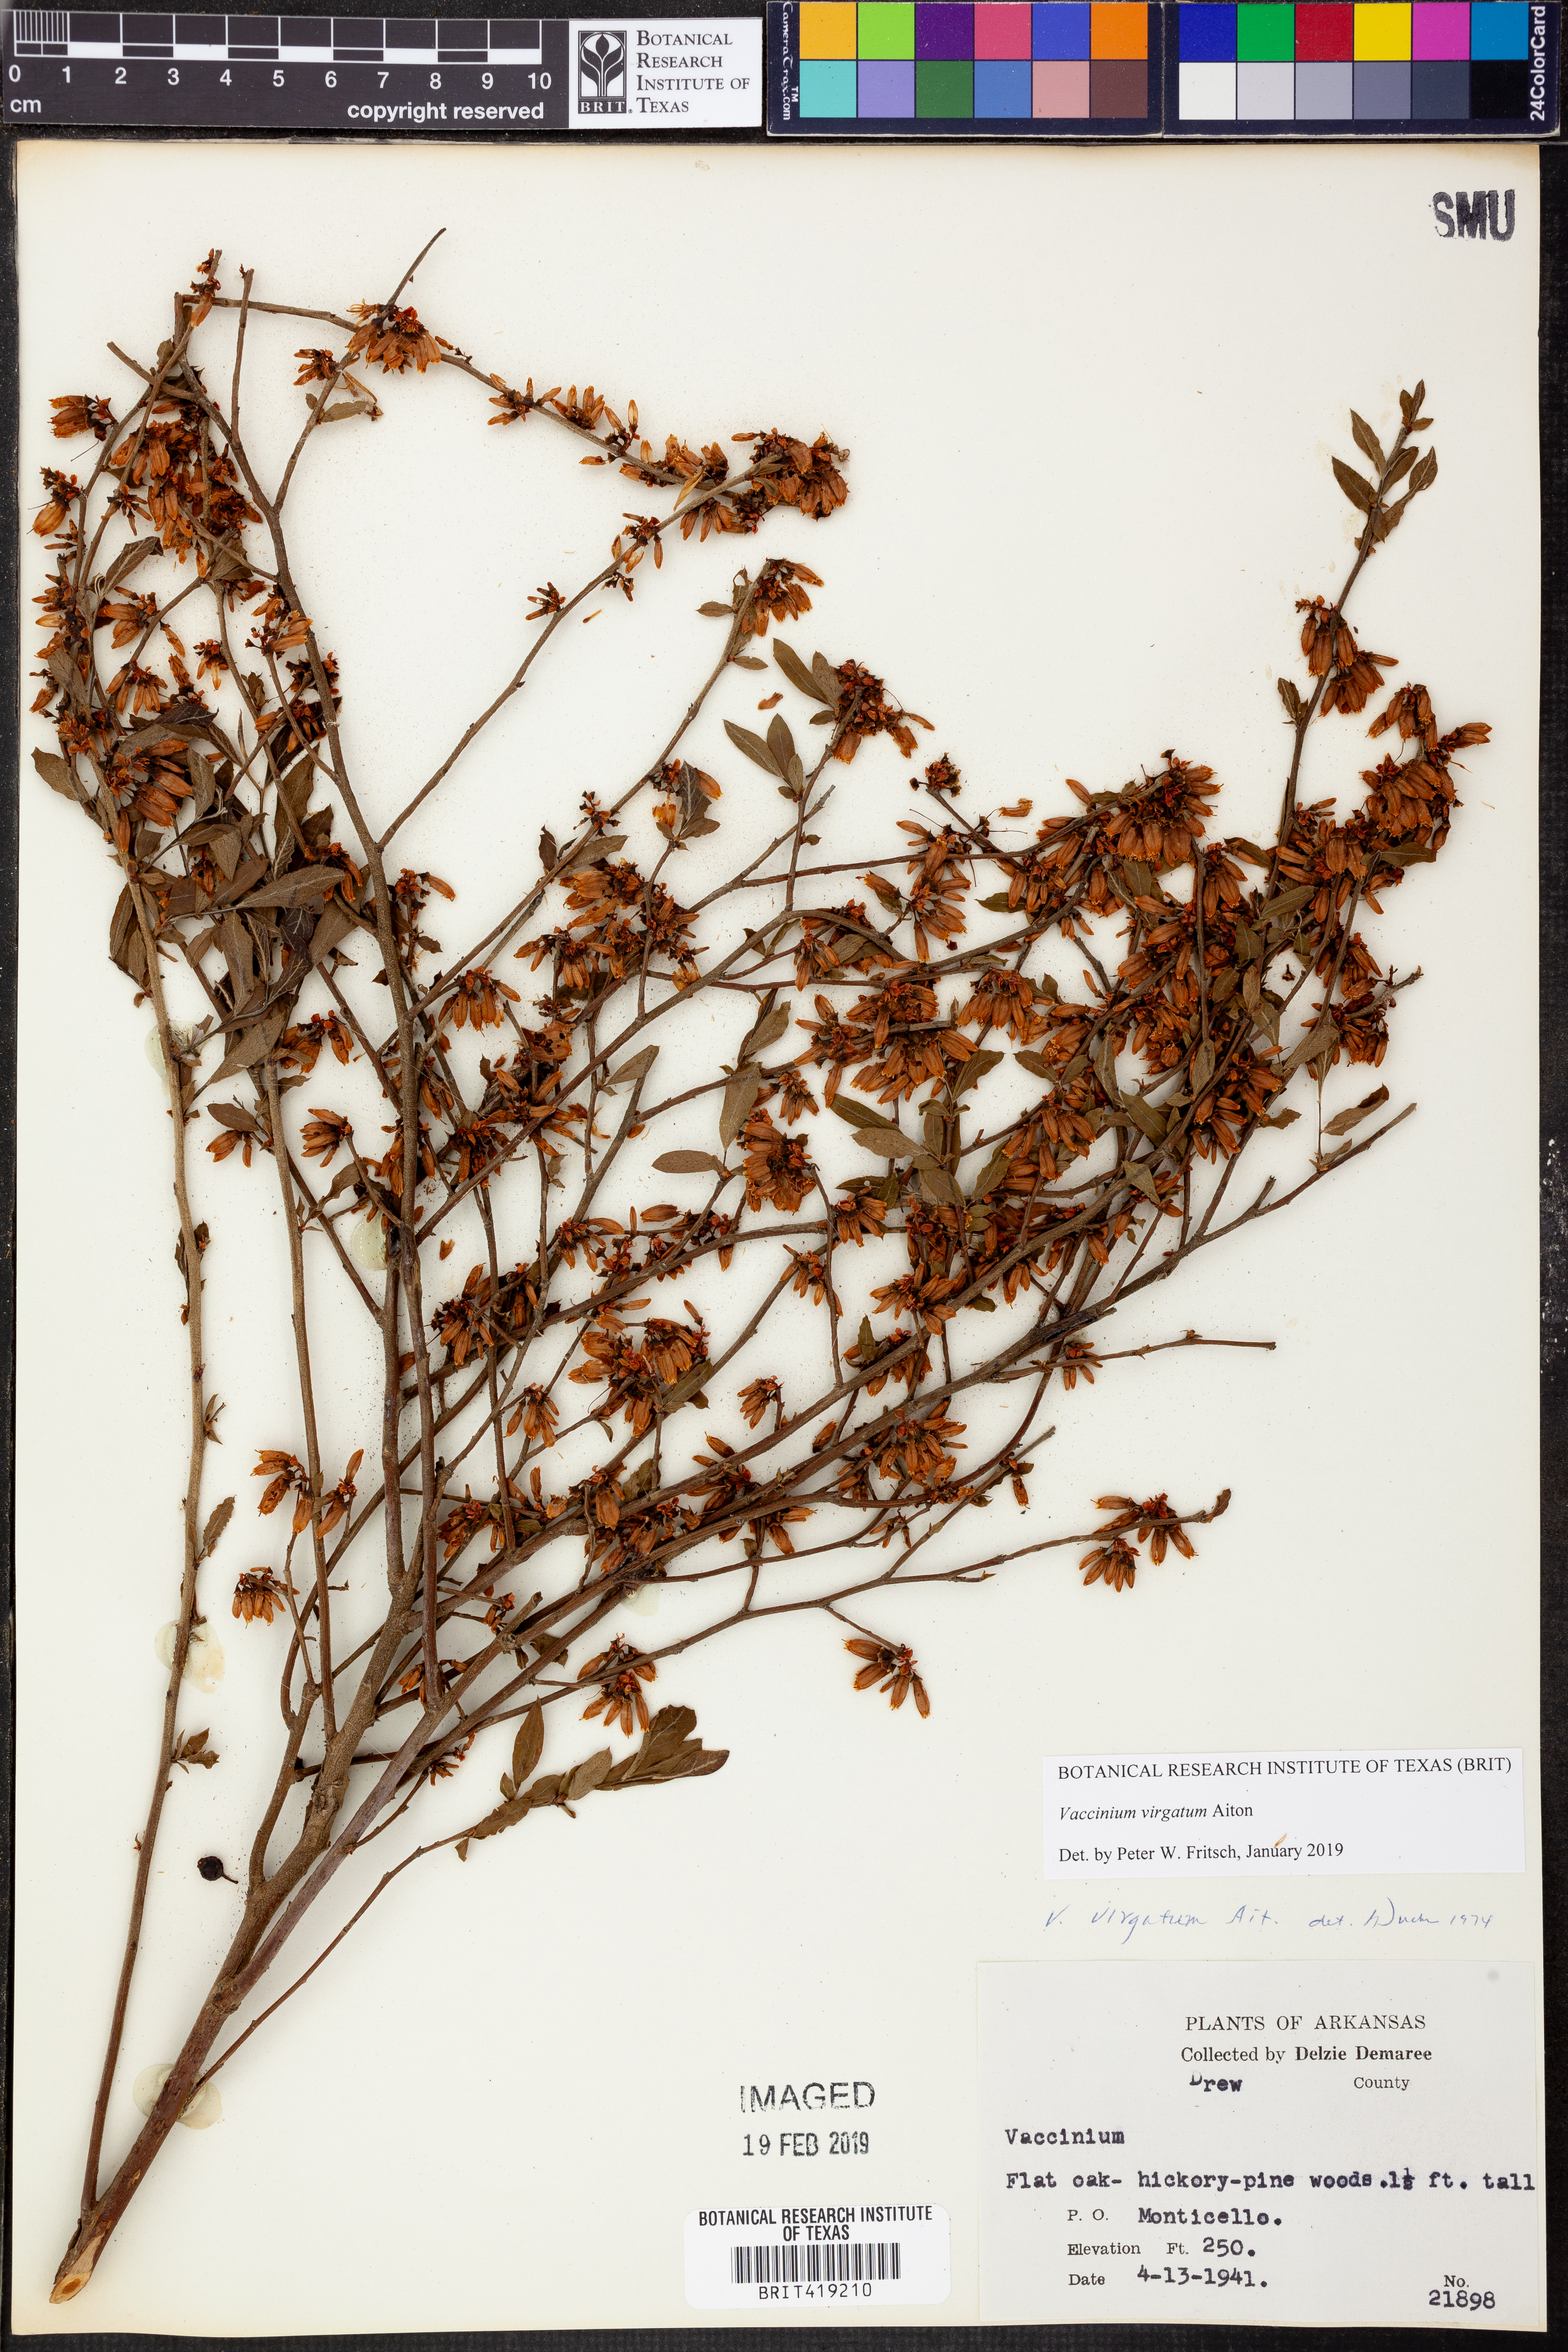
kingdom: Plantae
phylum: Tracheophyta
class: Magnoliopsida
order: Ericales
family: Ericaceae
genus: Vaccinium
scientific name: Vaccinium corymbosum
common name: Blueberry
